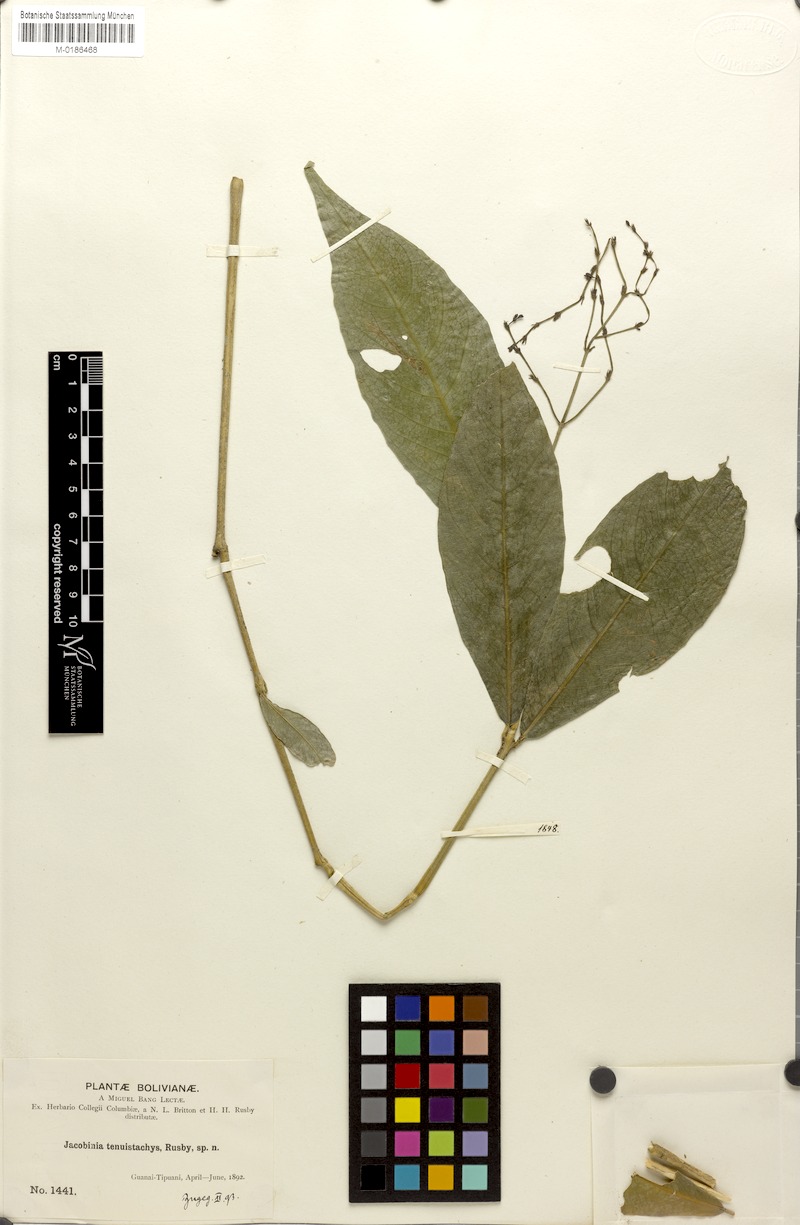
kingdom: Plantae
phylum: Tracheophyta
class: Magnoliopsida
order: Lamiales
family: Acanthaceae
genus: Justicia
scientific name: Justicia tenuistachys
